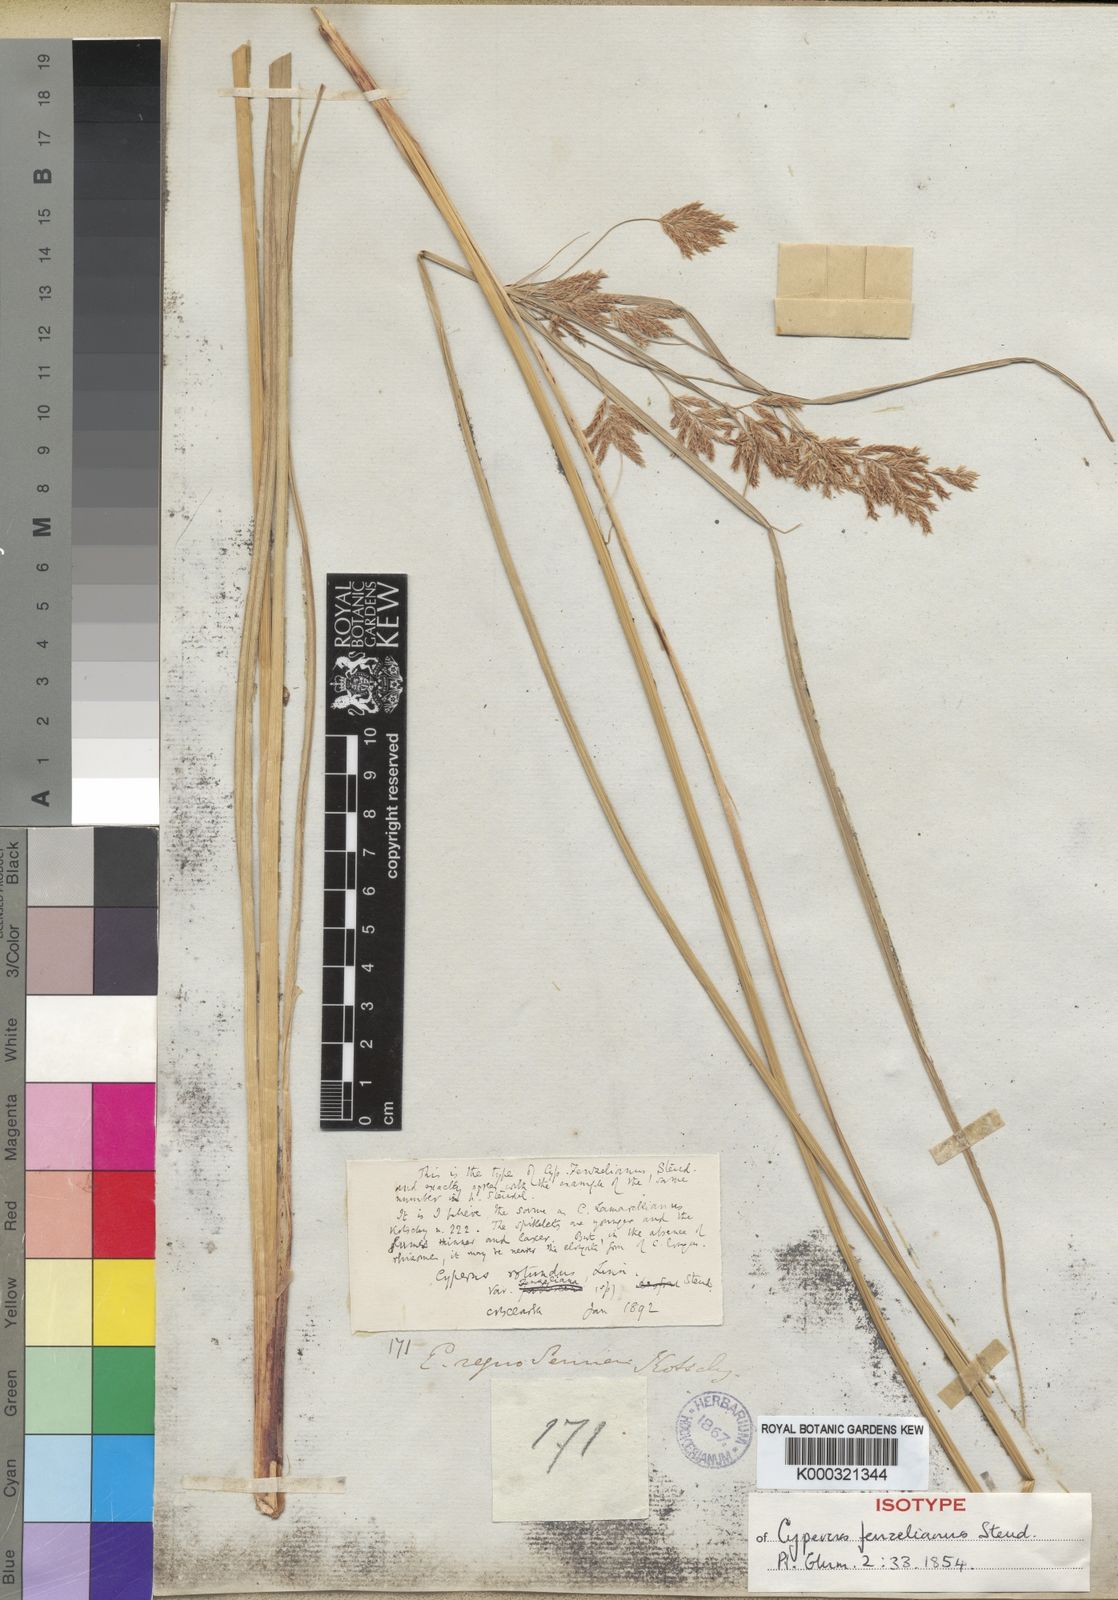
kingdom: Plantae
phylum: Tracheophyta
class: Liliopsida
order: Poales
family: Cyperaceae
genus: Cyperus
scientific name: Cyperus longus
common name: Galingale
